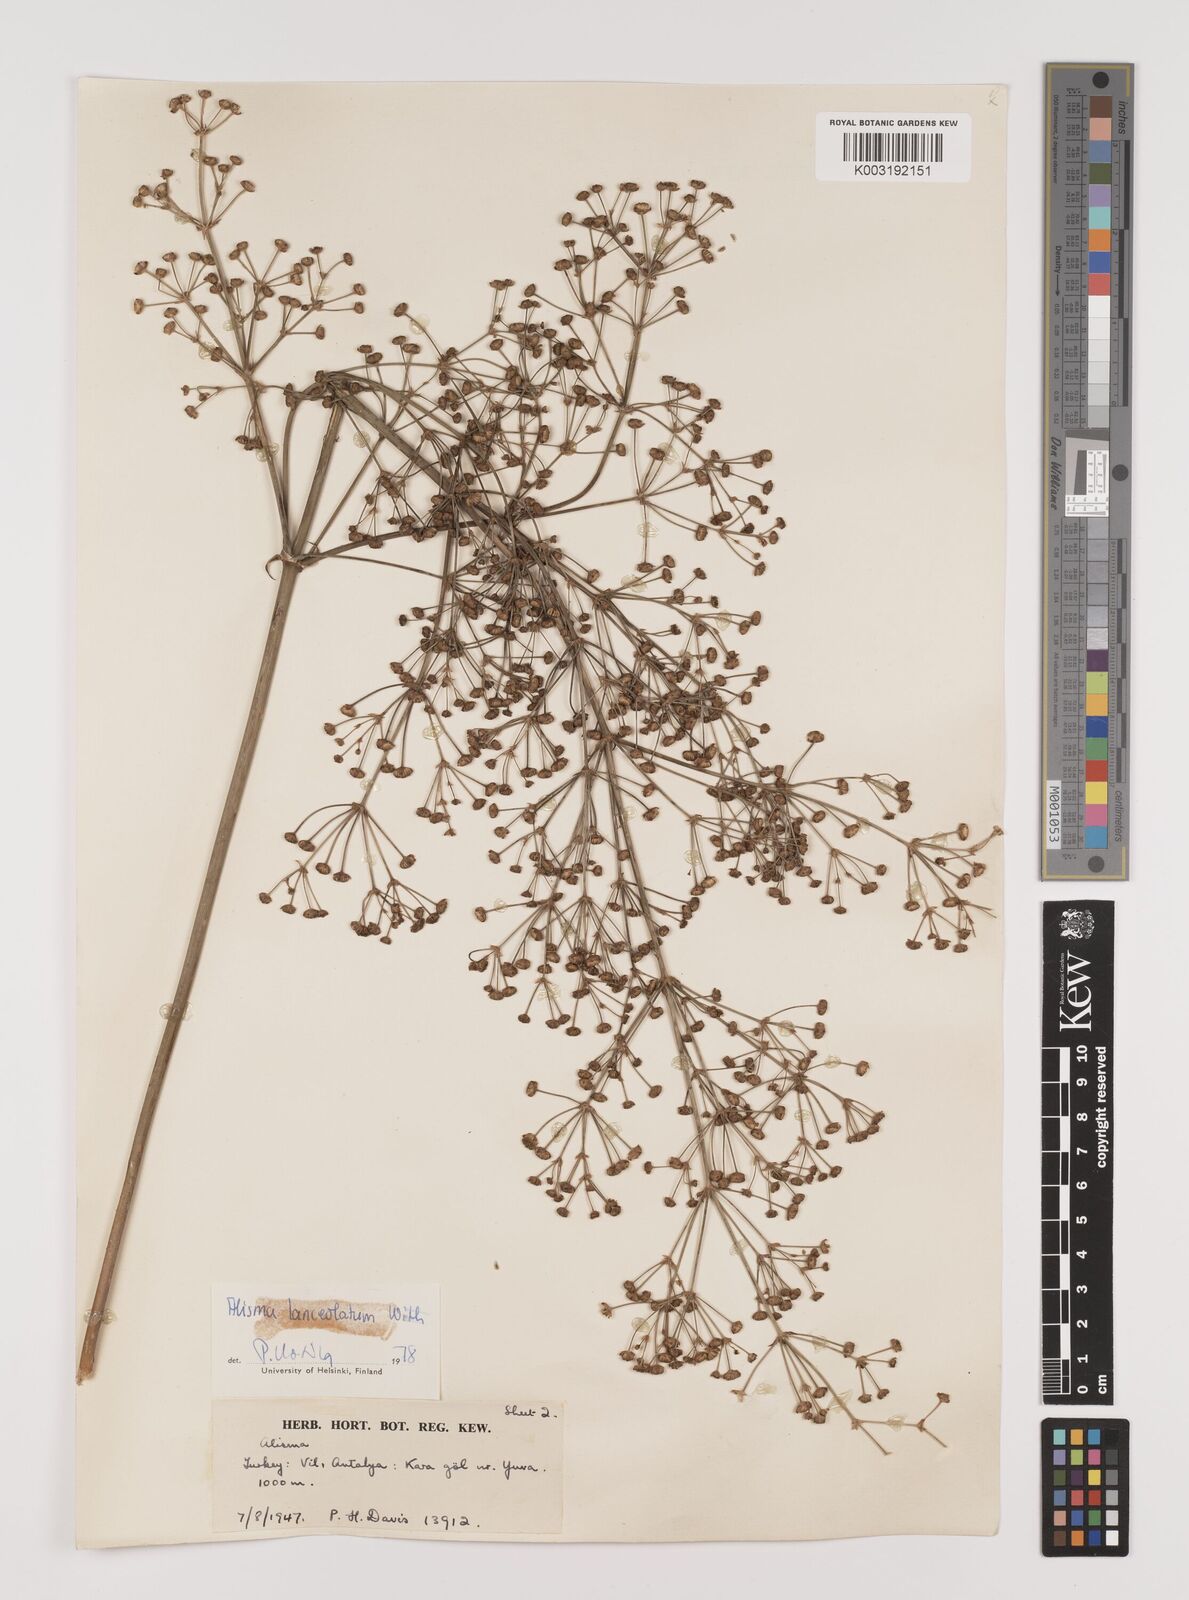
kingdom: Plantae
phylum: Tracheophyta
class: Liliopsida
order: Alismatales
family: Alismataceae
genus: Alisma
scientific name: Alisma lanceolatum
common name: Narrow-leaved water-plantain
